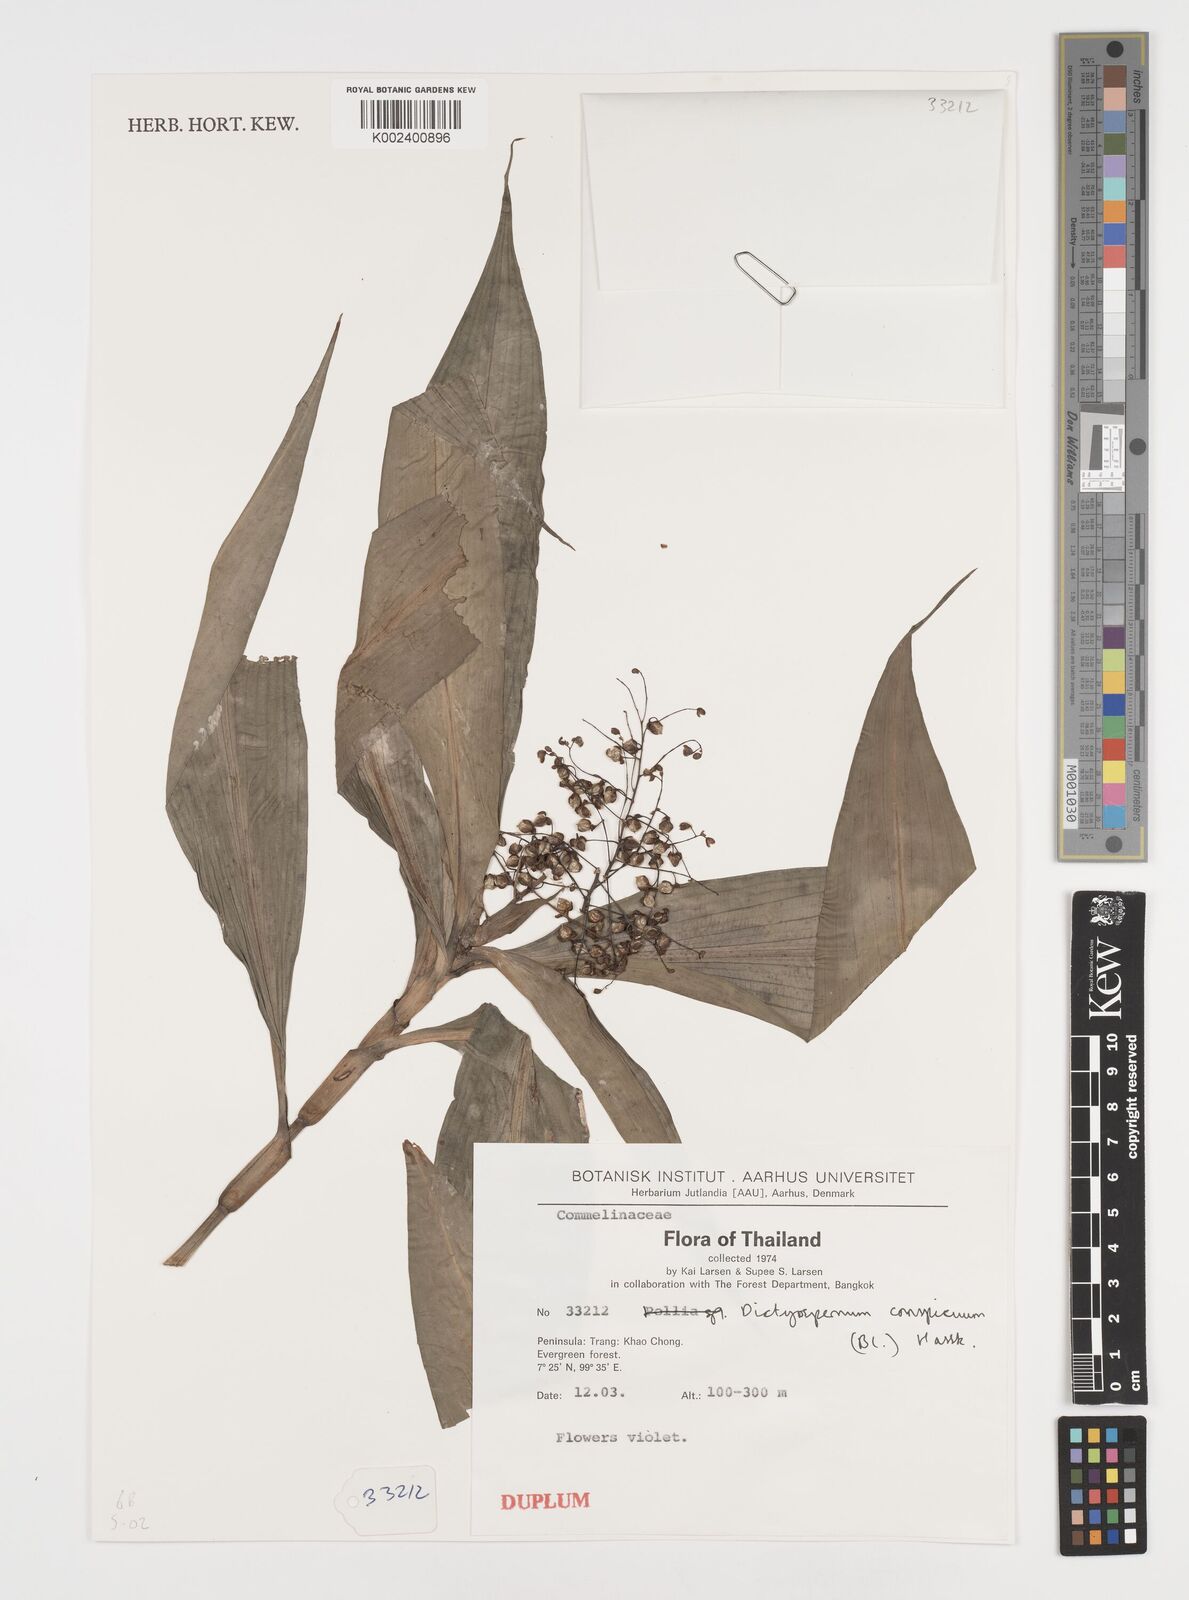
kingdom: Plantae
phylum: Tracheophyta
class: Liliopsida
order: Commelinales
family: Commelinaceae
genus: Dictyospermum
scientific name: Dictyospermum conspicuum
